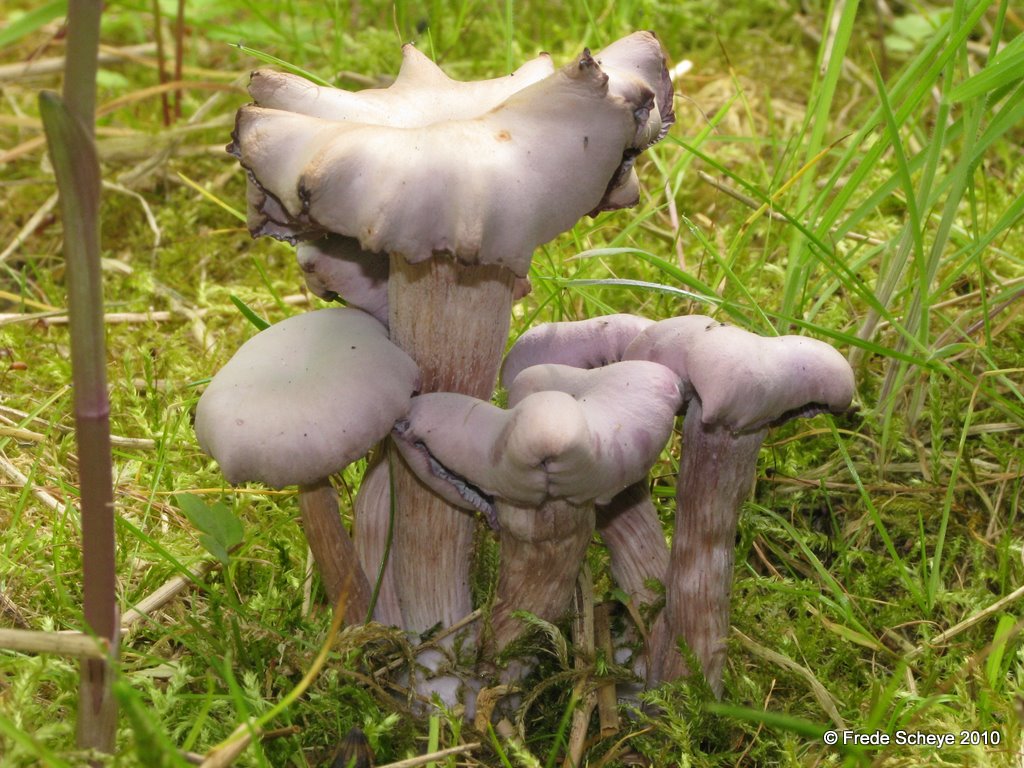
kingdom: Fungi
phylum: Basidiomycota
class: Agaricomycetes
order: Agaricales
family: Hydnangiaceae
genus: Laccaria
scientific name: Laccaria amethystina
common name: violet ametysthat
